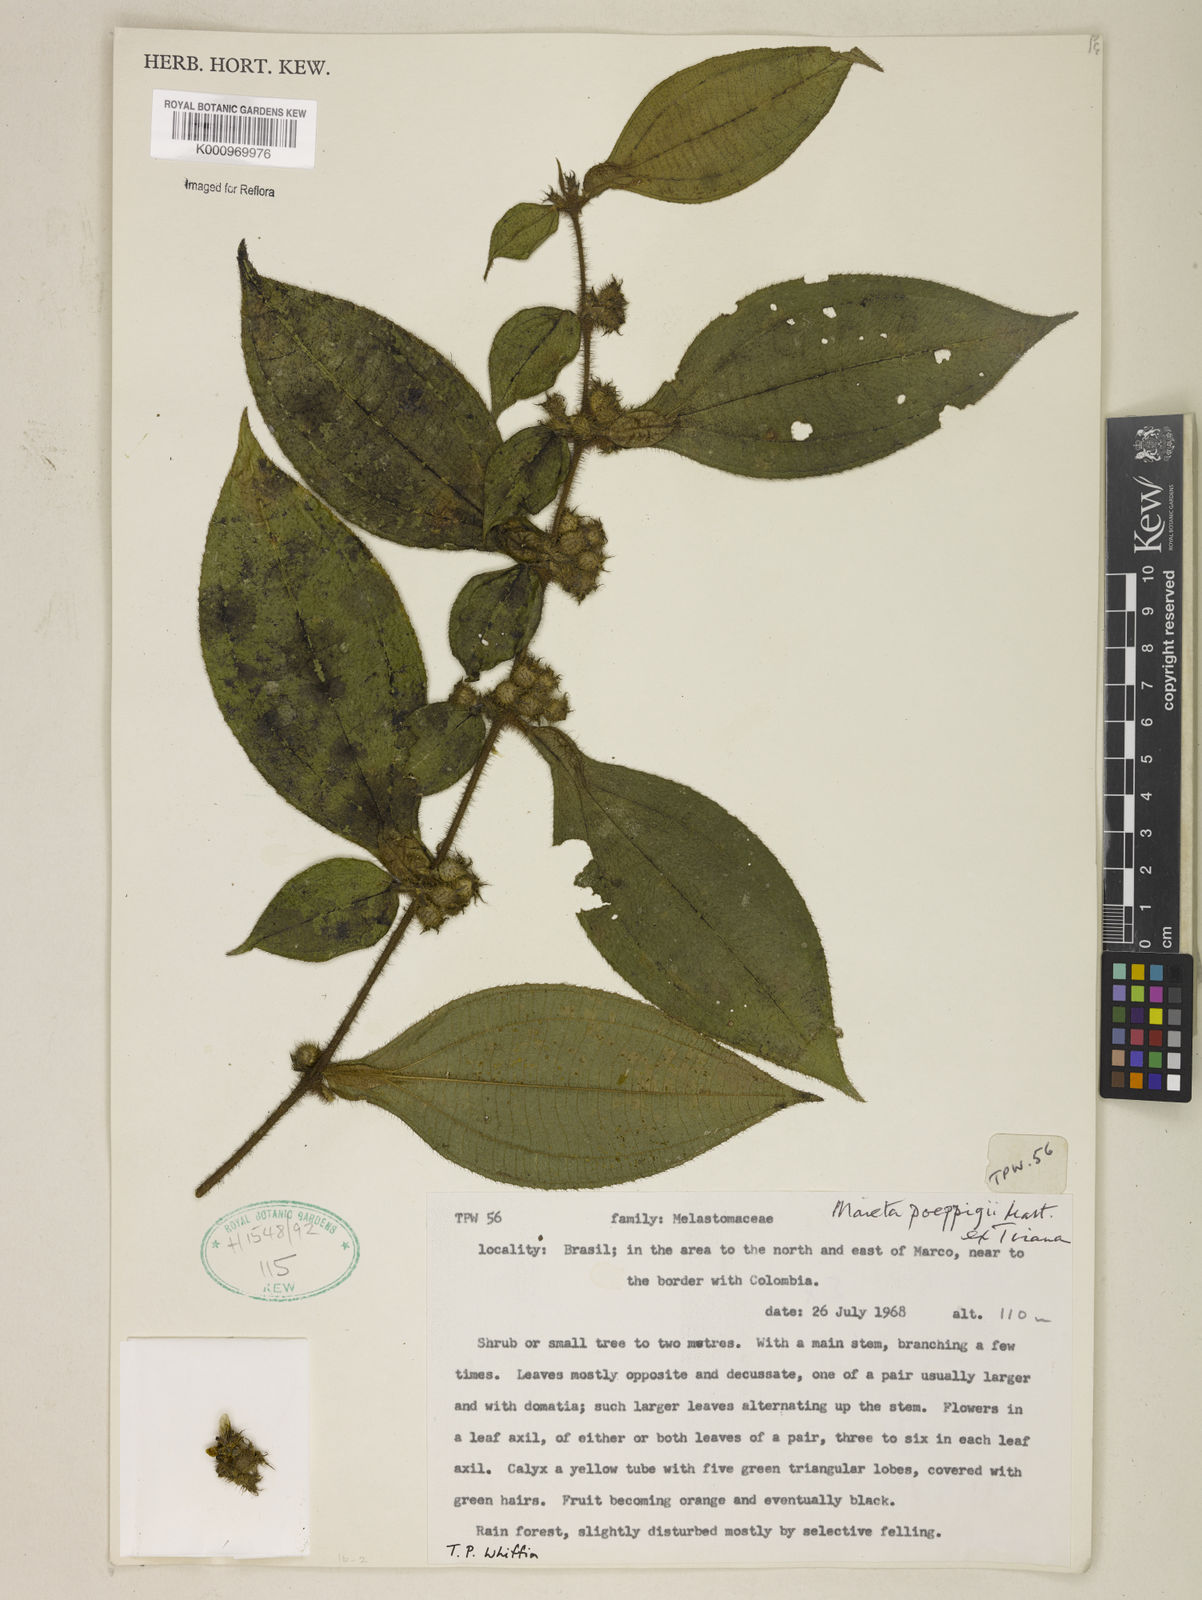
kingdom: Plantae
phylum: Tracheophyta
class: Magnoliopsida
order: Myrtales
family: Melastomataceae
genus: Miconia
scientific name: Miconia alternidomatia
